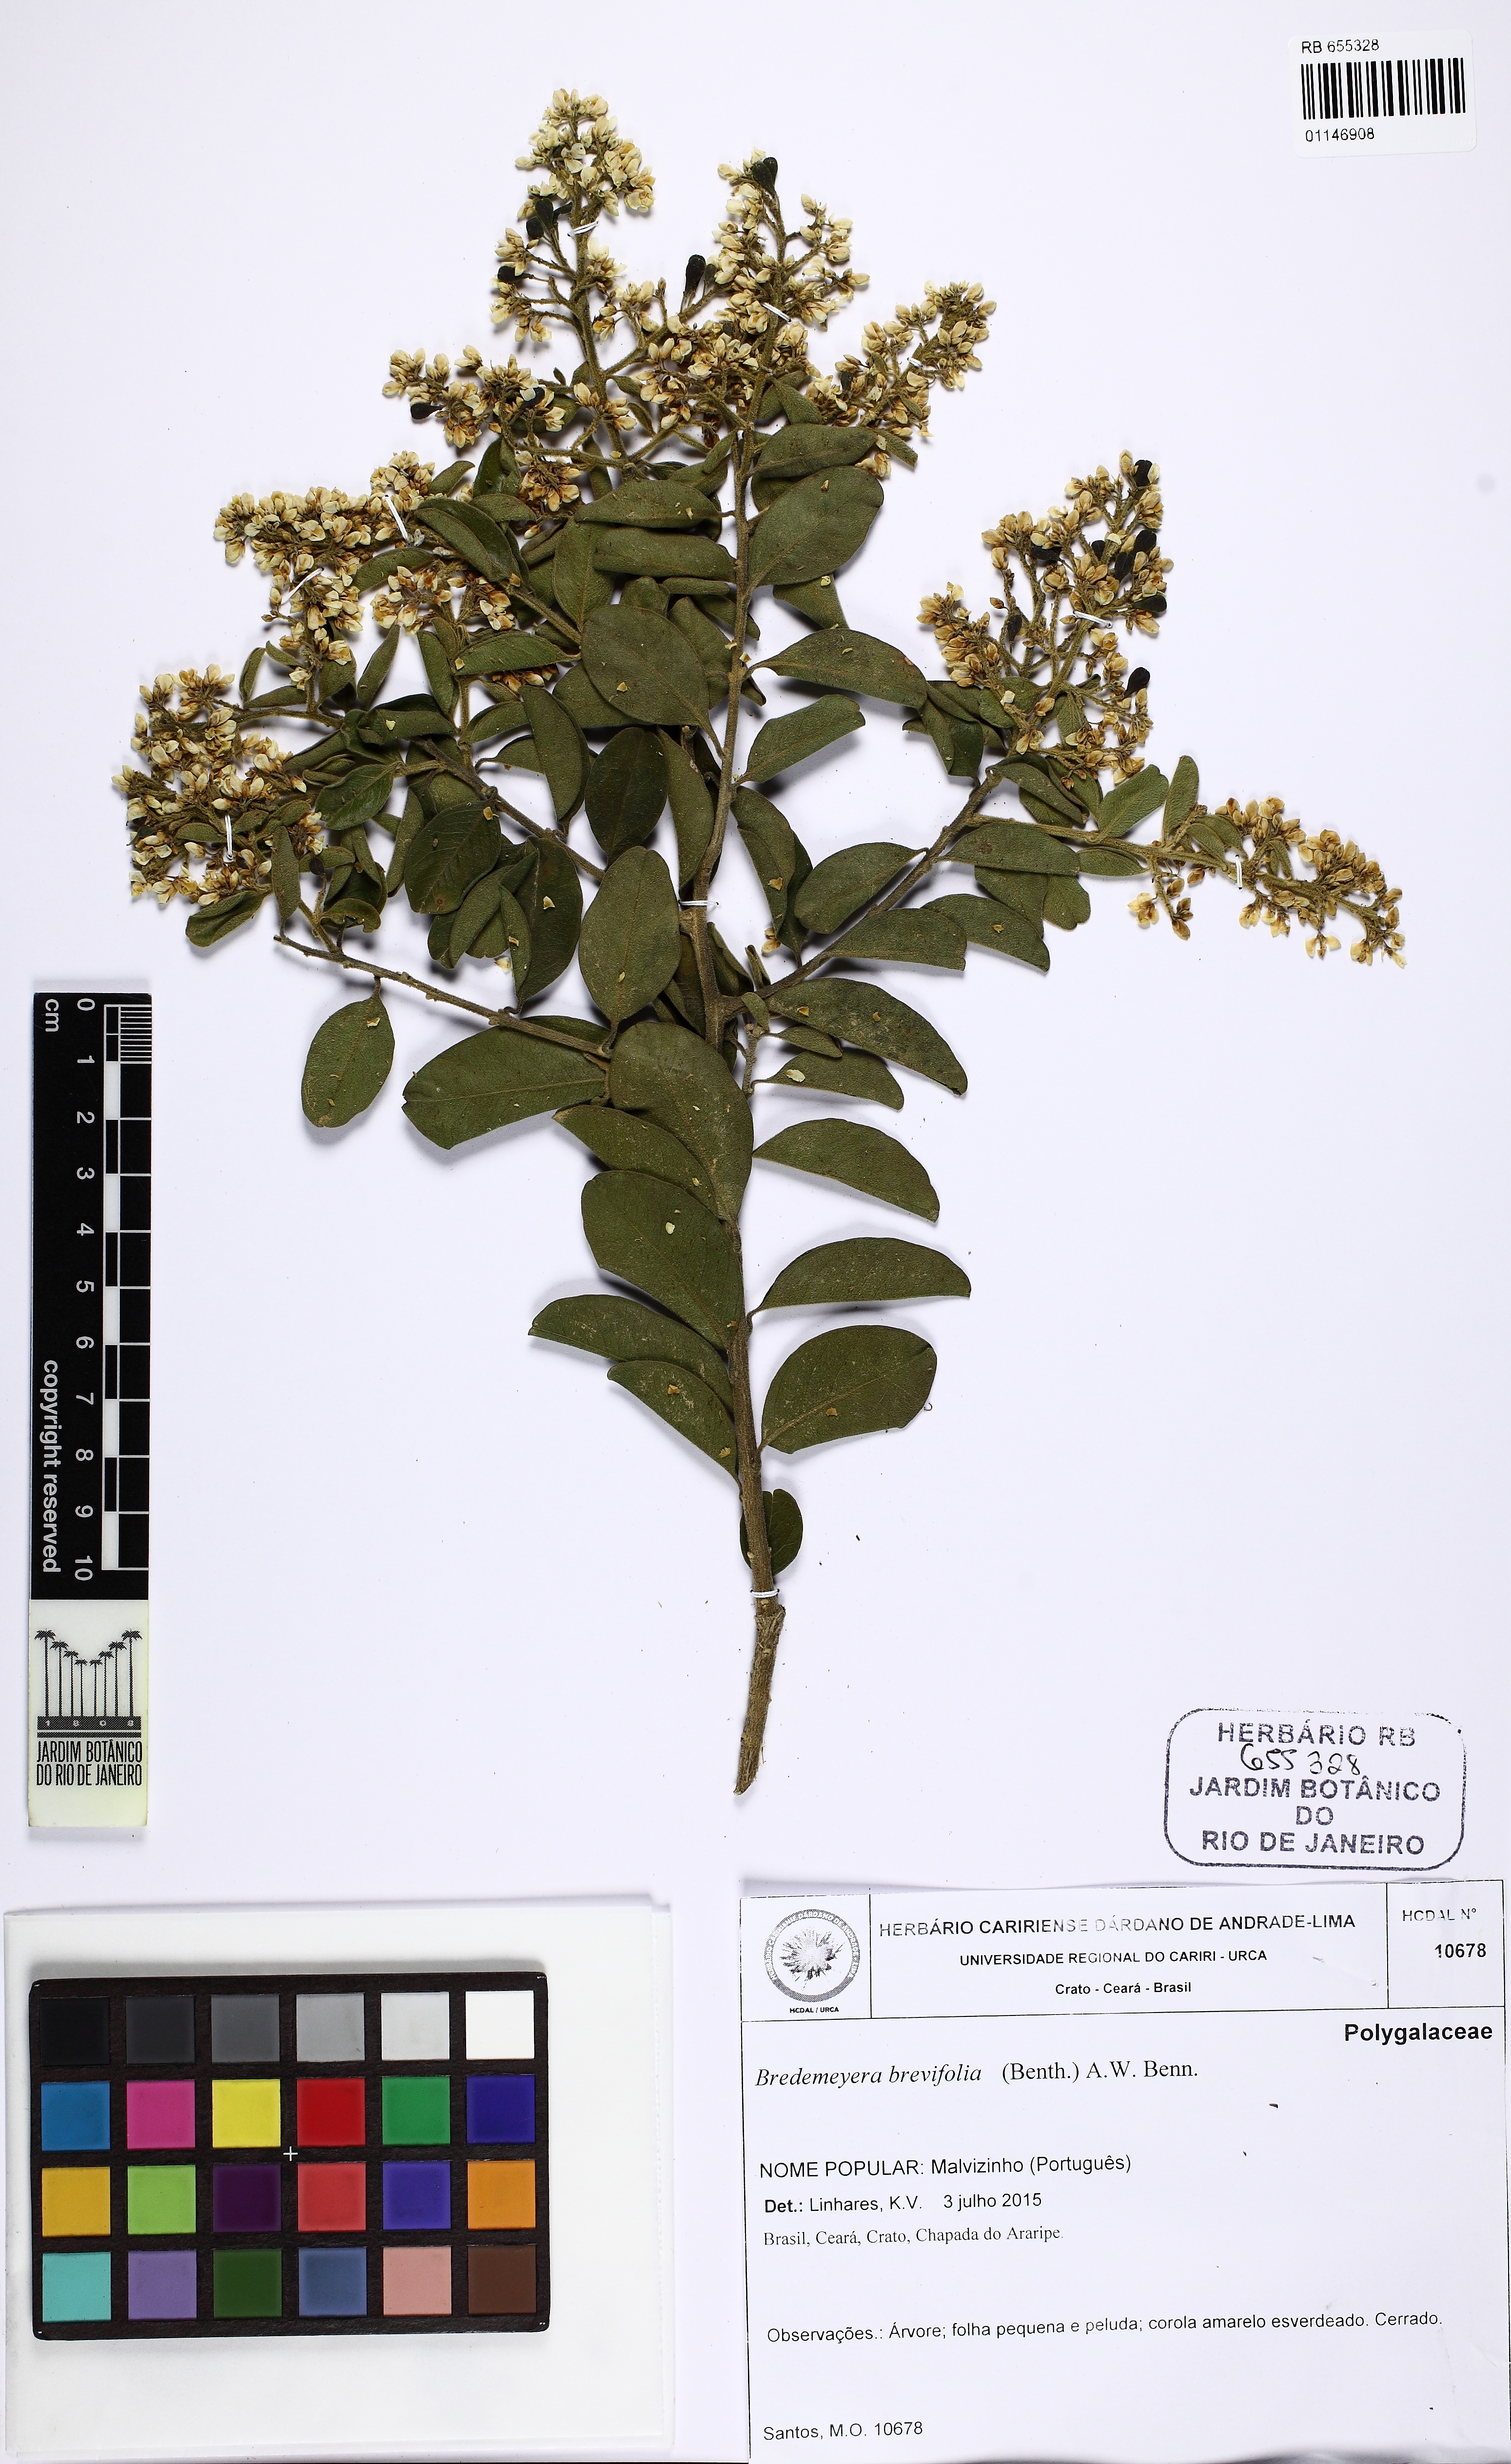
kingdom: Plantae
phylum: Tracheophyta
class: Magnoliopsida
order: Fabales
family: Polygalaceae
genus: Bredemeyera
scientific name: Bredemeyera brevifolia
